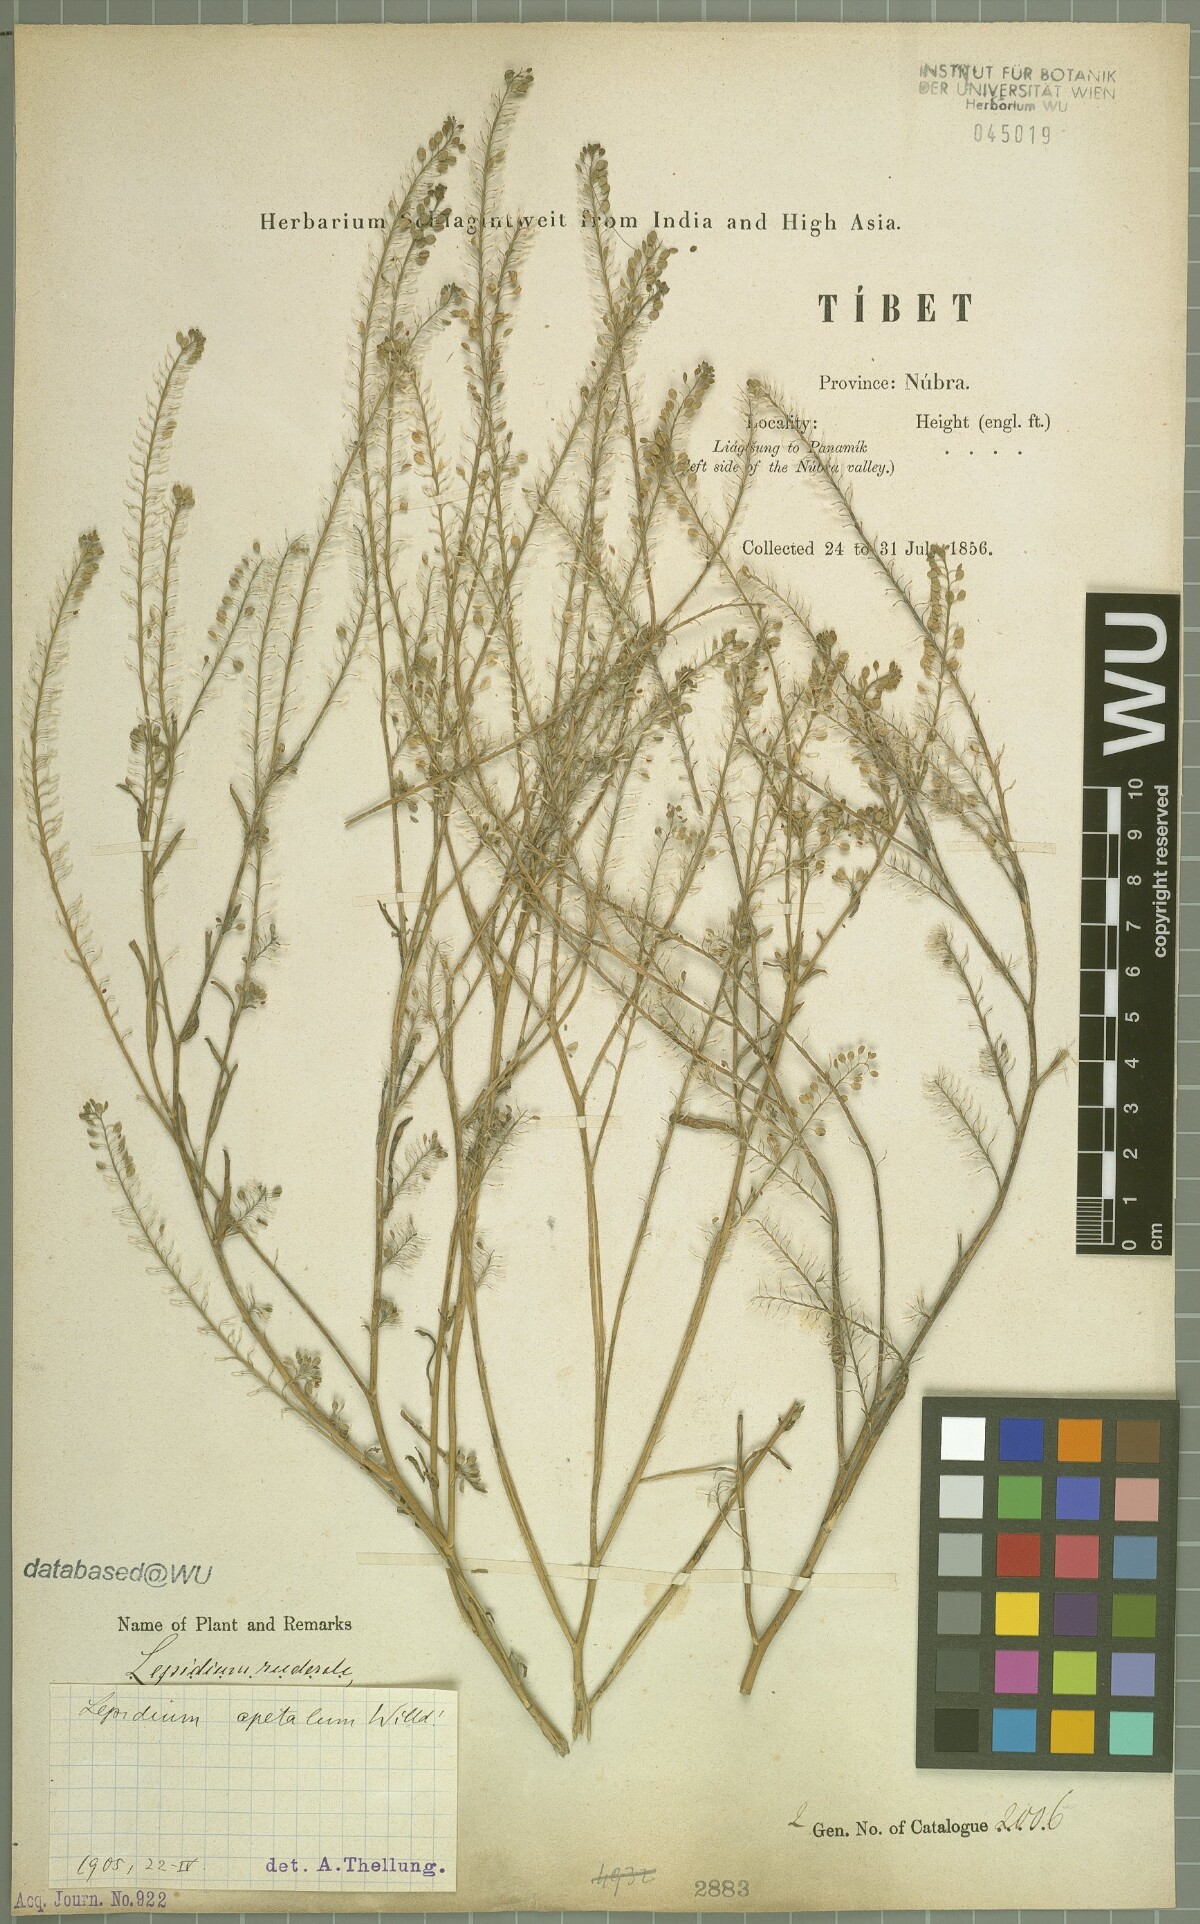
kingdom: Plantae
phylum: Tracheophyta
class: Magnoliopsida
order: Brassicales
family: Brassicaceae
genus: Lepidium
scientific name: Lepidium apetalum
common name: Pepperweed
